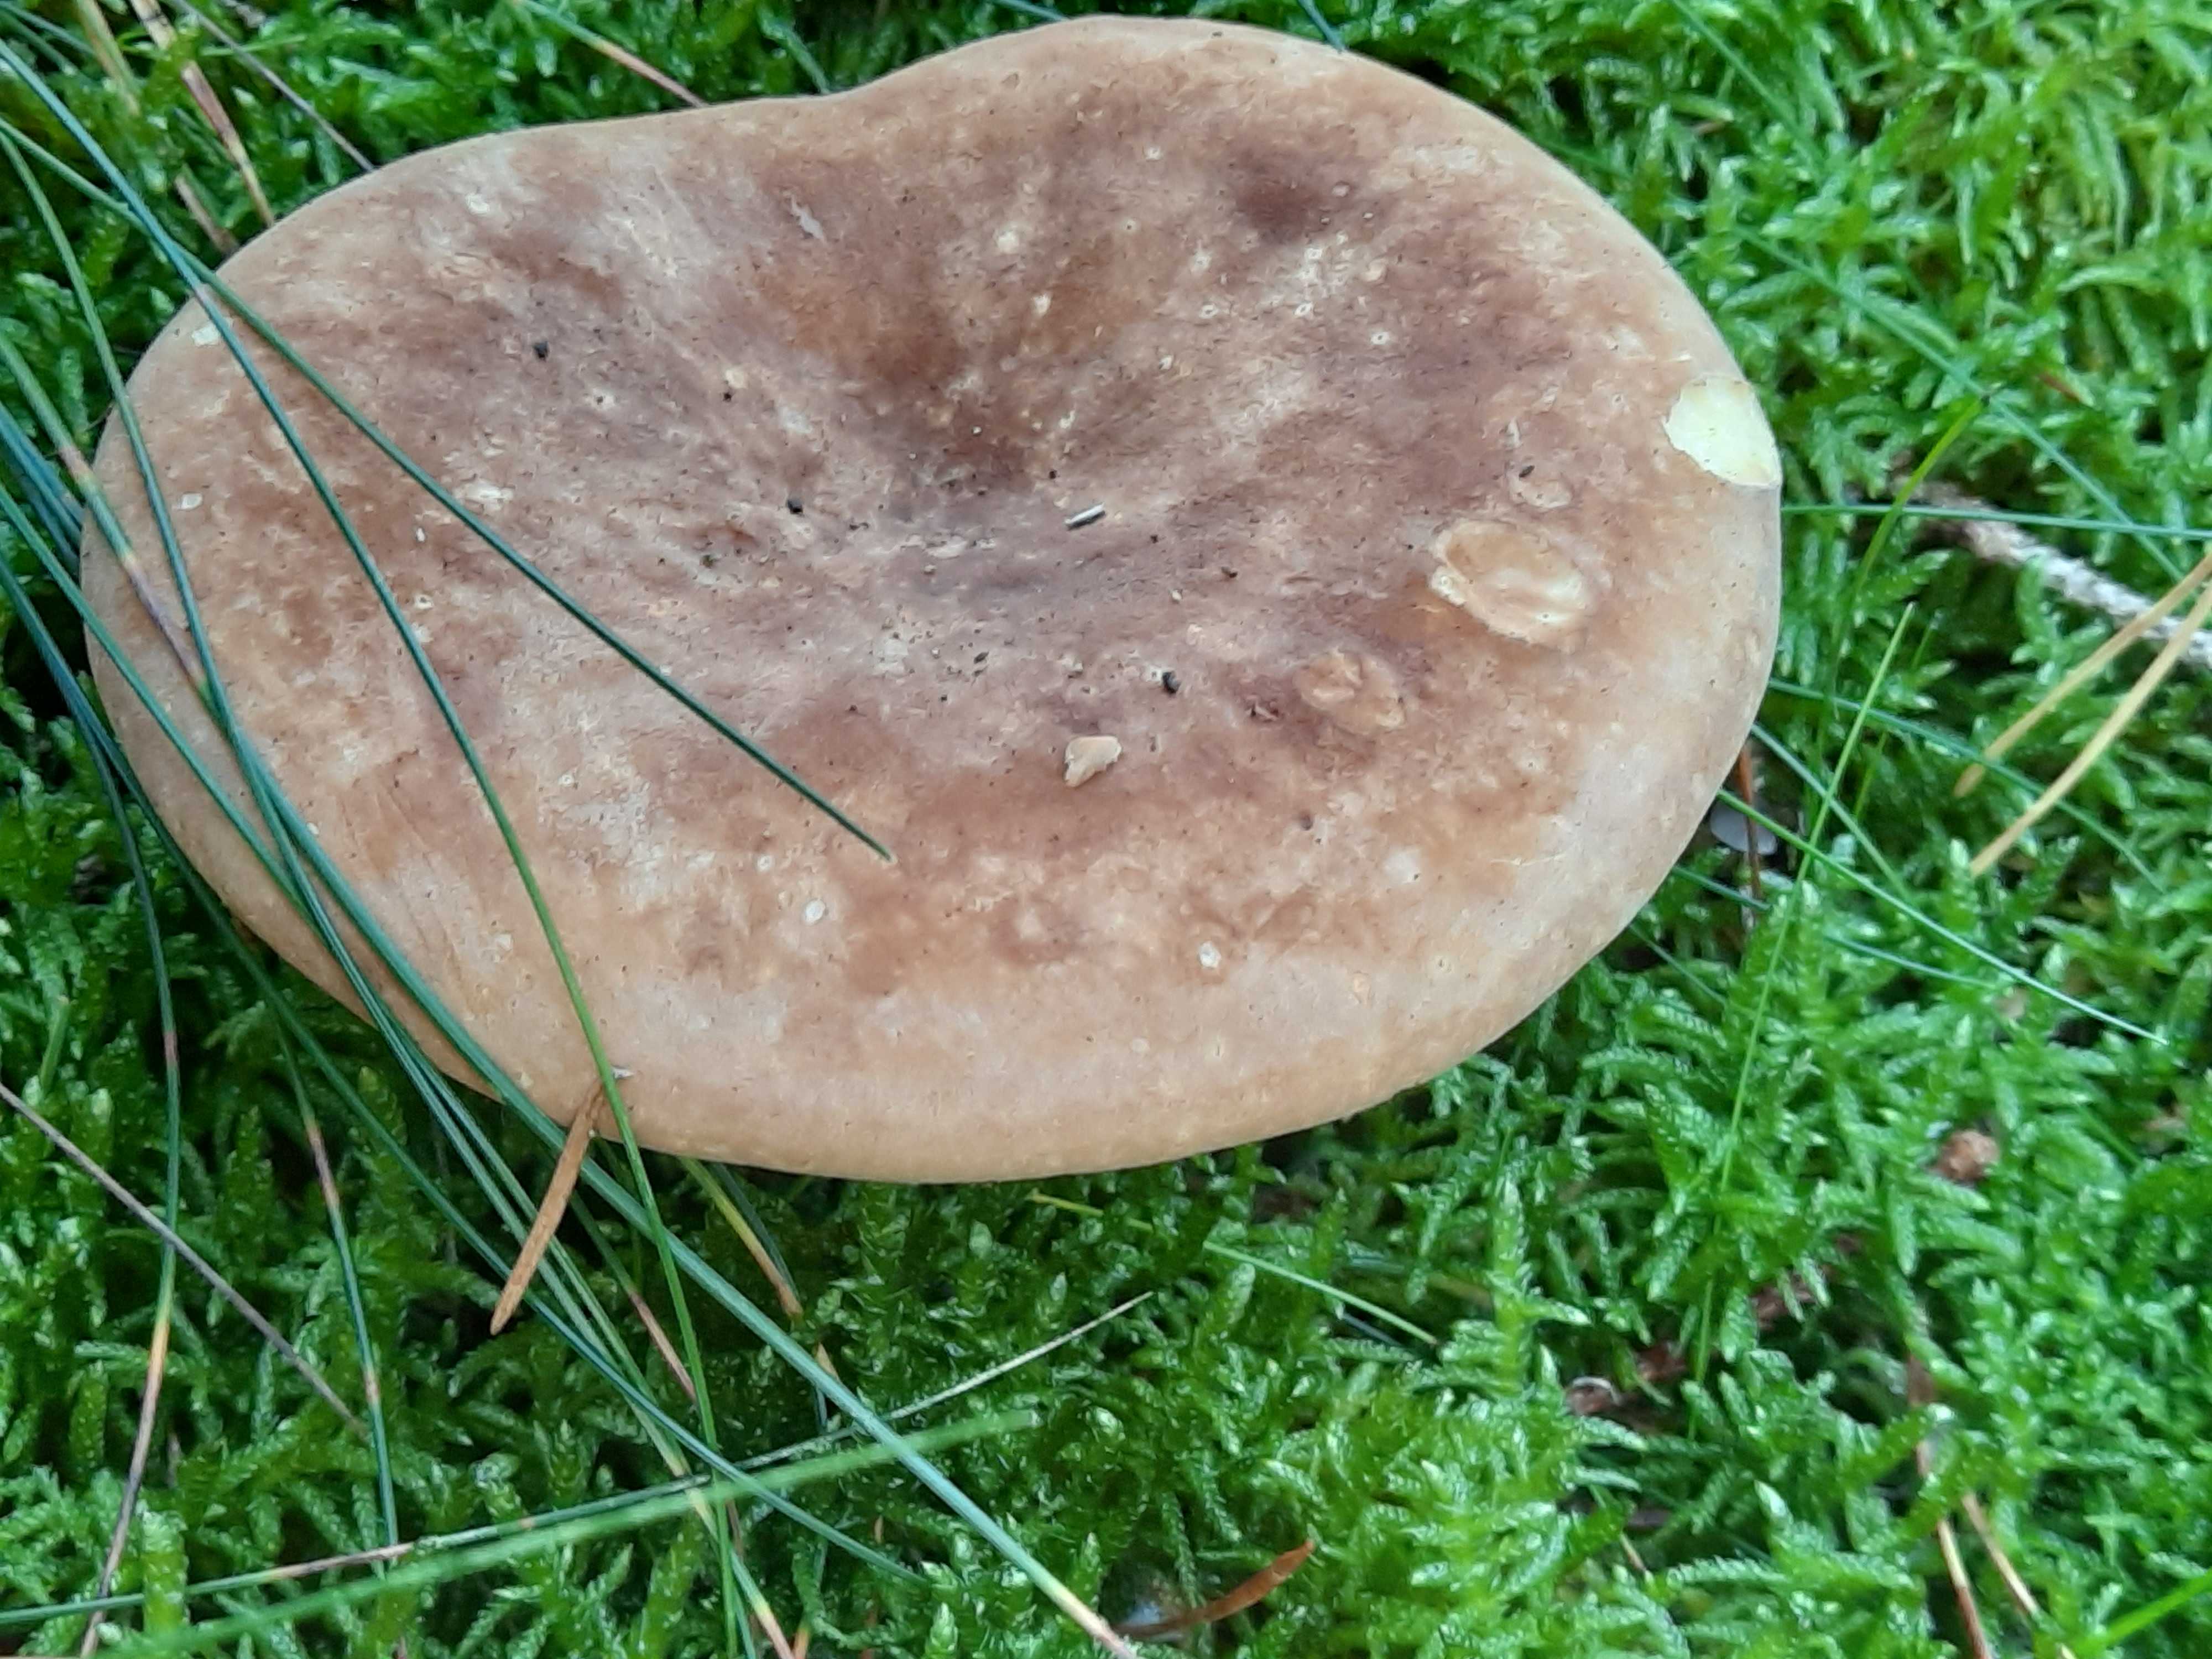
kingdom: Fungi
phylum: Basidiomycota
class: Agaricomycetes
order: Boletales
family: Tapinellaceae
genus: Tapinella
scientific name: Tapinella atrotomentosa
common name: sortfiltet viftesvamp
